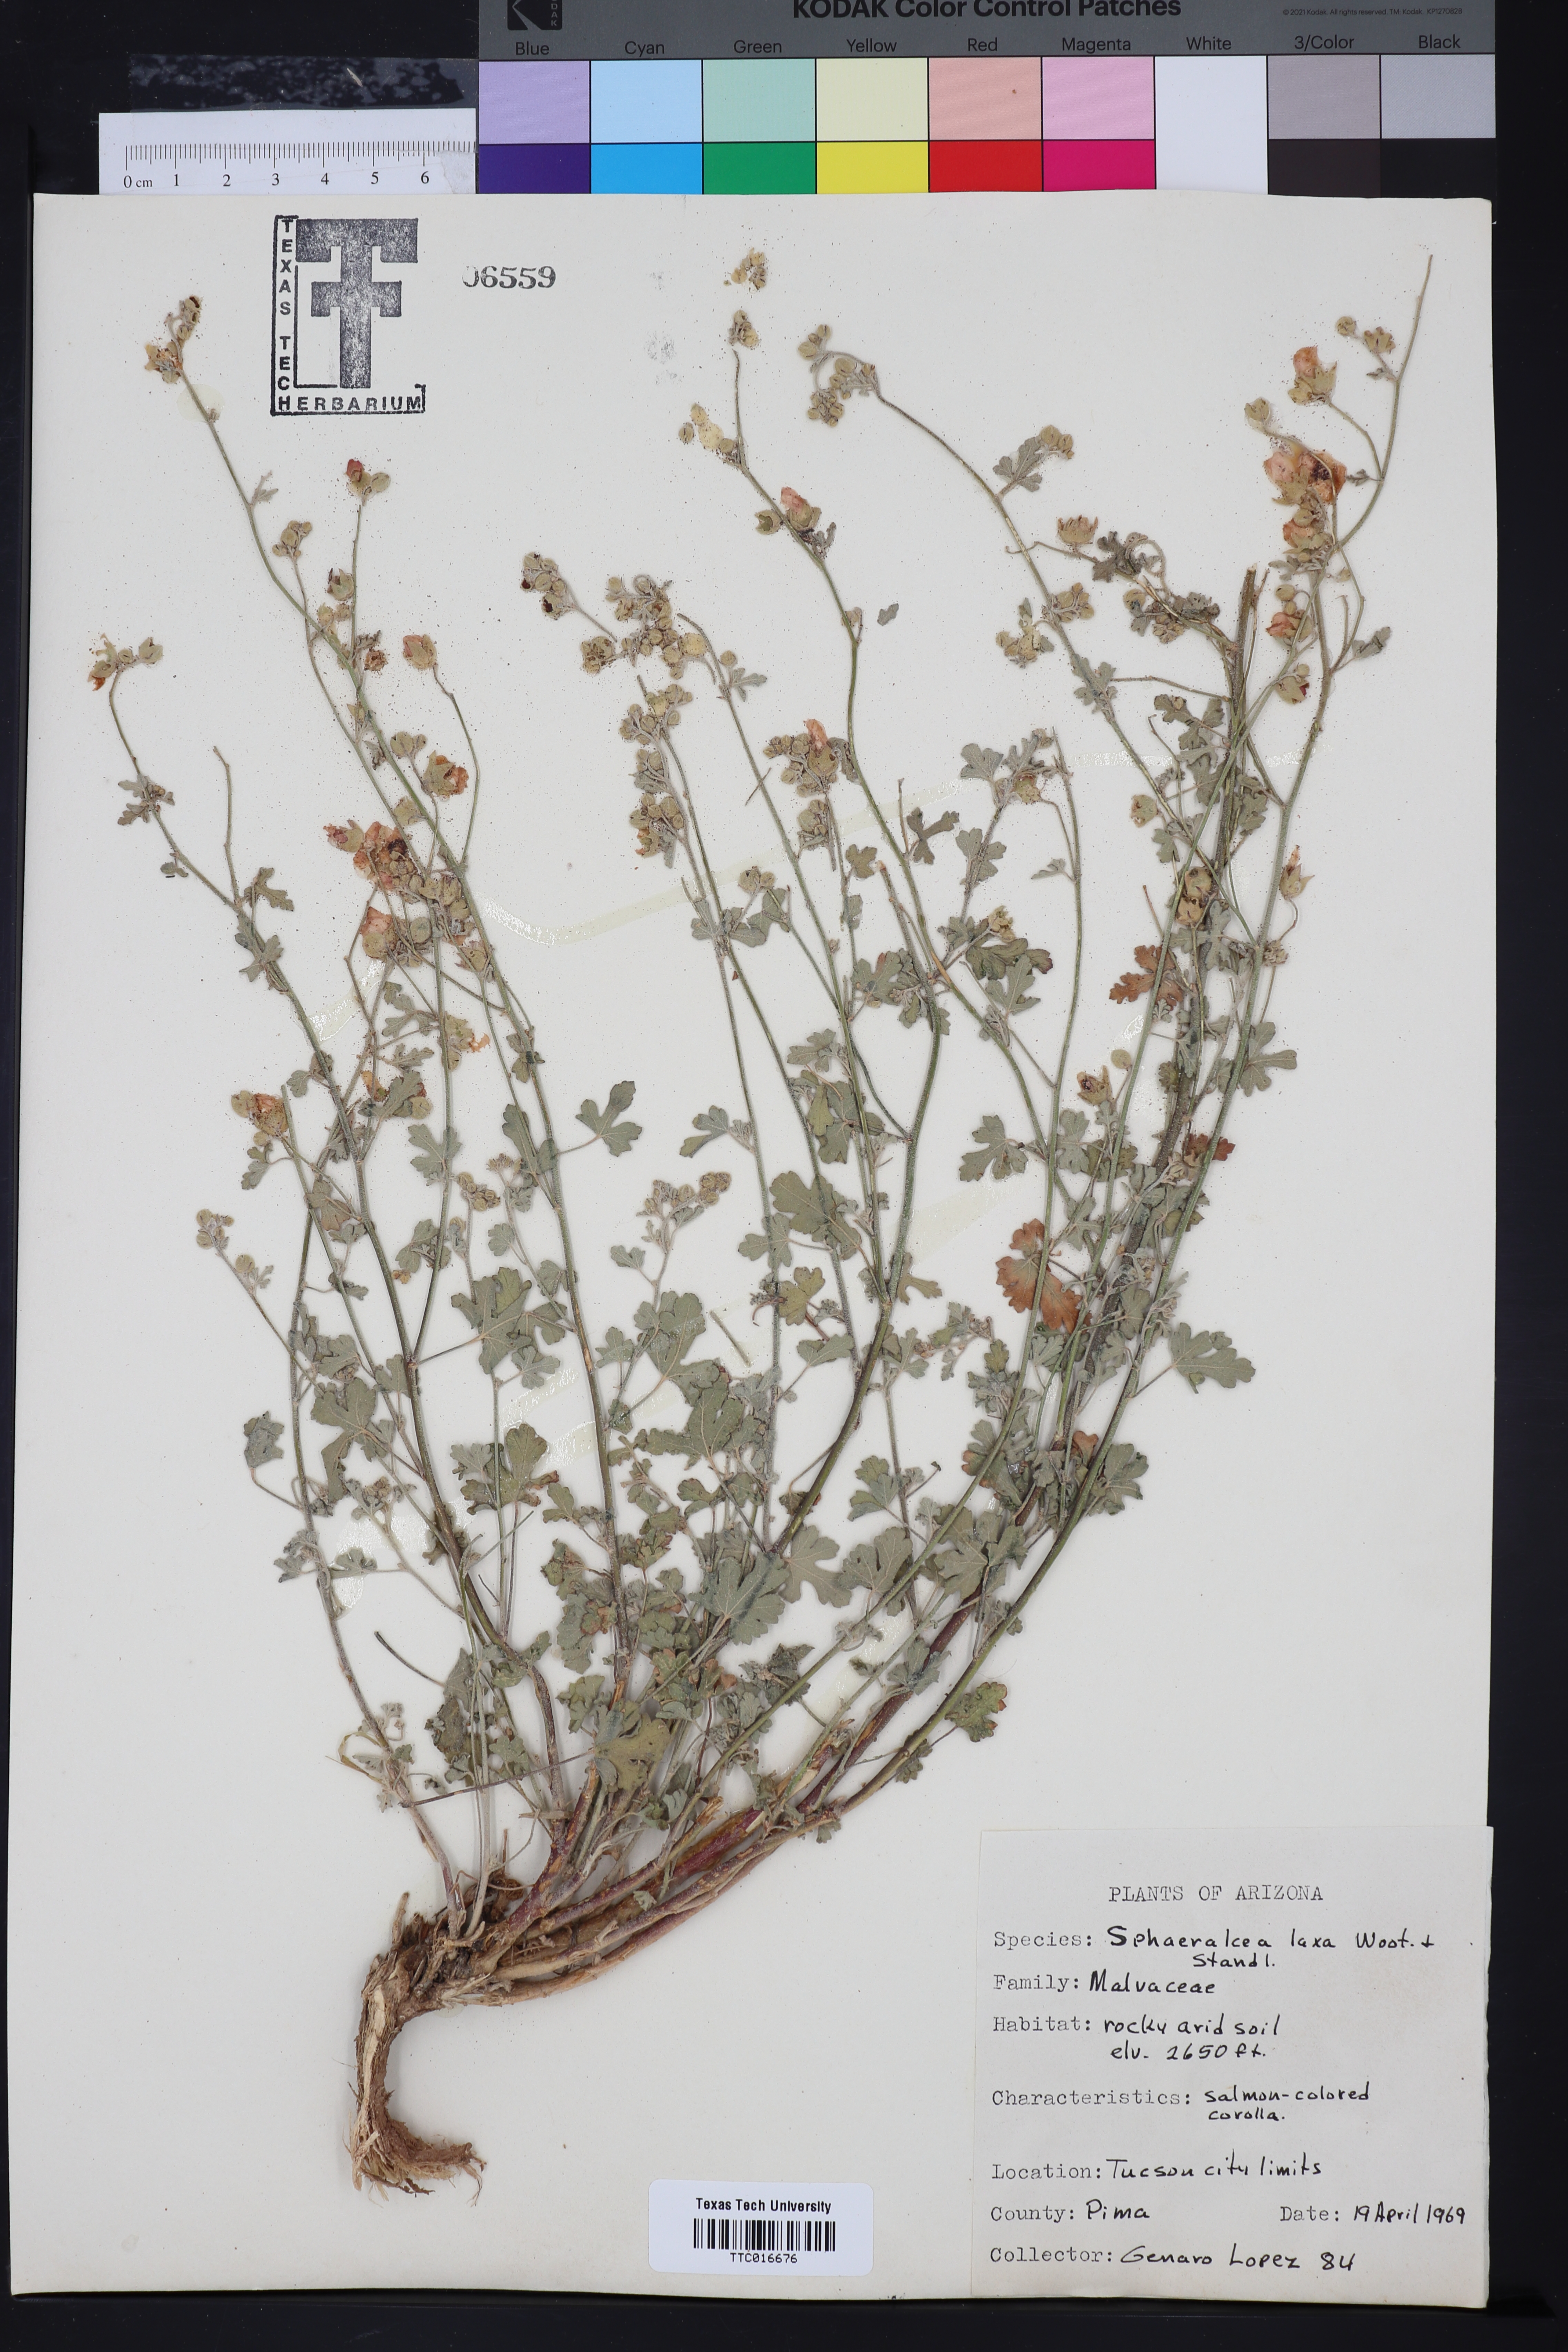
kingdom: Plantae
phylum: Tracheophyta
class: Magnoliopsida
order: Malvales
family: Malvaceae
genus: Sphaeralcea
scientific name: Sphaeralcea
